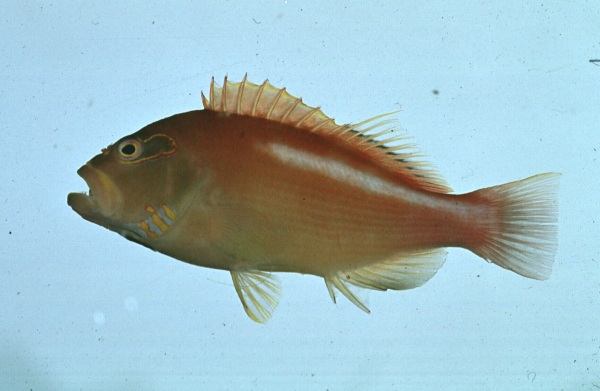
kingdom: Animalia
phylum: Chordata
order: Perciformes
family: Cirrhitidae
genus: Paracirrhites
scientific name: Paracirrhites arcatus
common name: Arc-eye hawkfish
